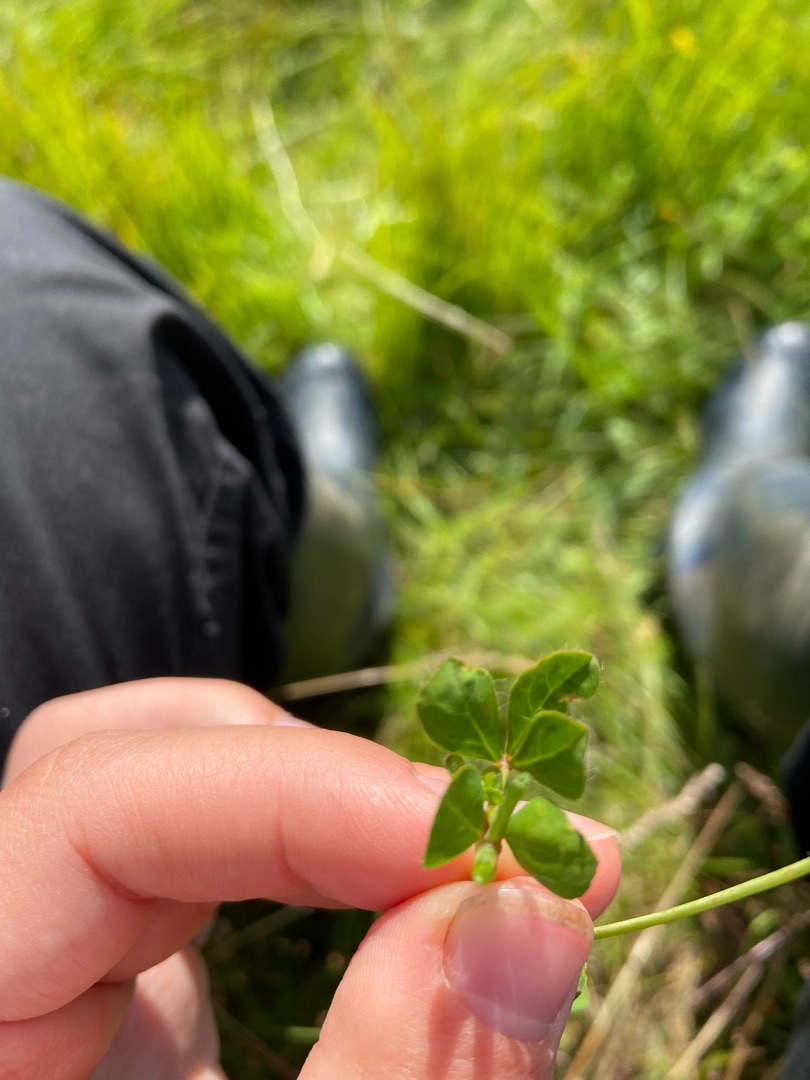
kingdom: Plantae
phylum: Tracheophyta
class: Magnoliopsida
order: Fabales
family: Fabaceae
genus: Lotus
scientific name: Lotus pedunculatus
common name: Sump-kællingetand
